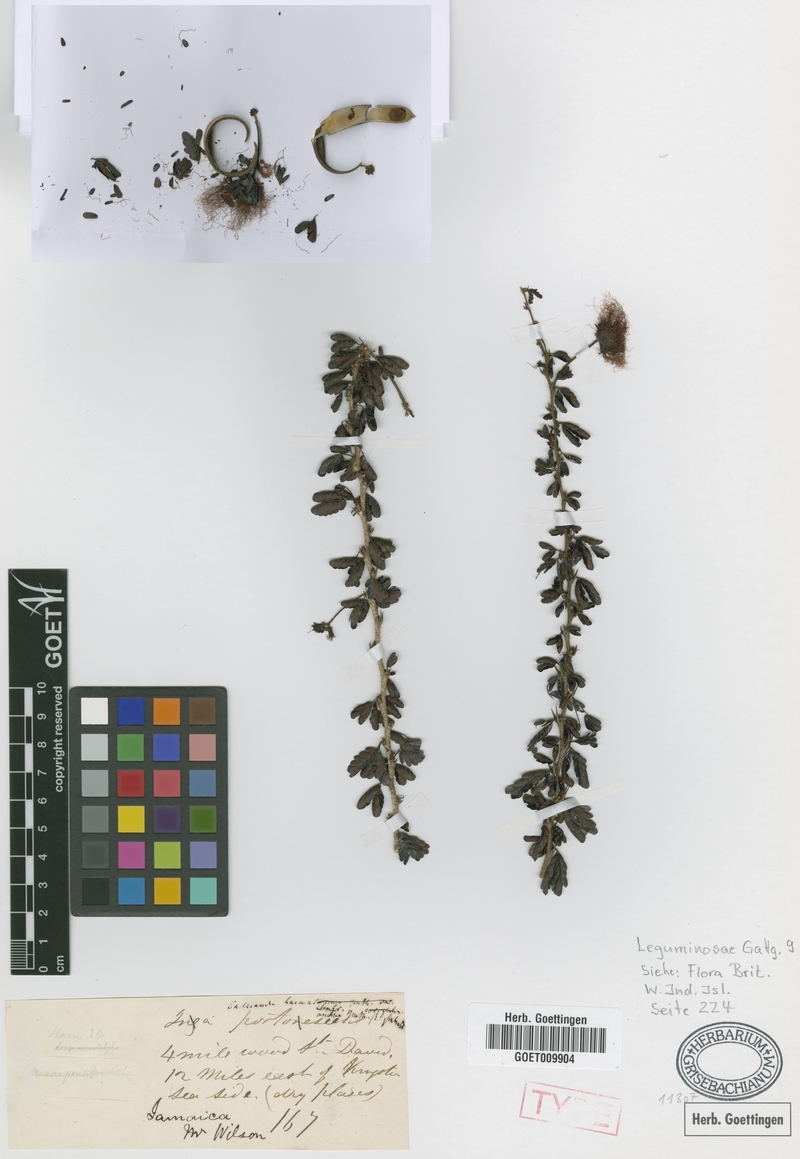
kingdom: Plantae
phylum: Tracheophyta
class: Magnoliopsida
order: Fabales
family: Fabaceae
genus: Calliandra
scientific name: Calliandra haematomma
